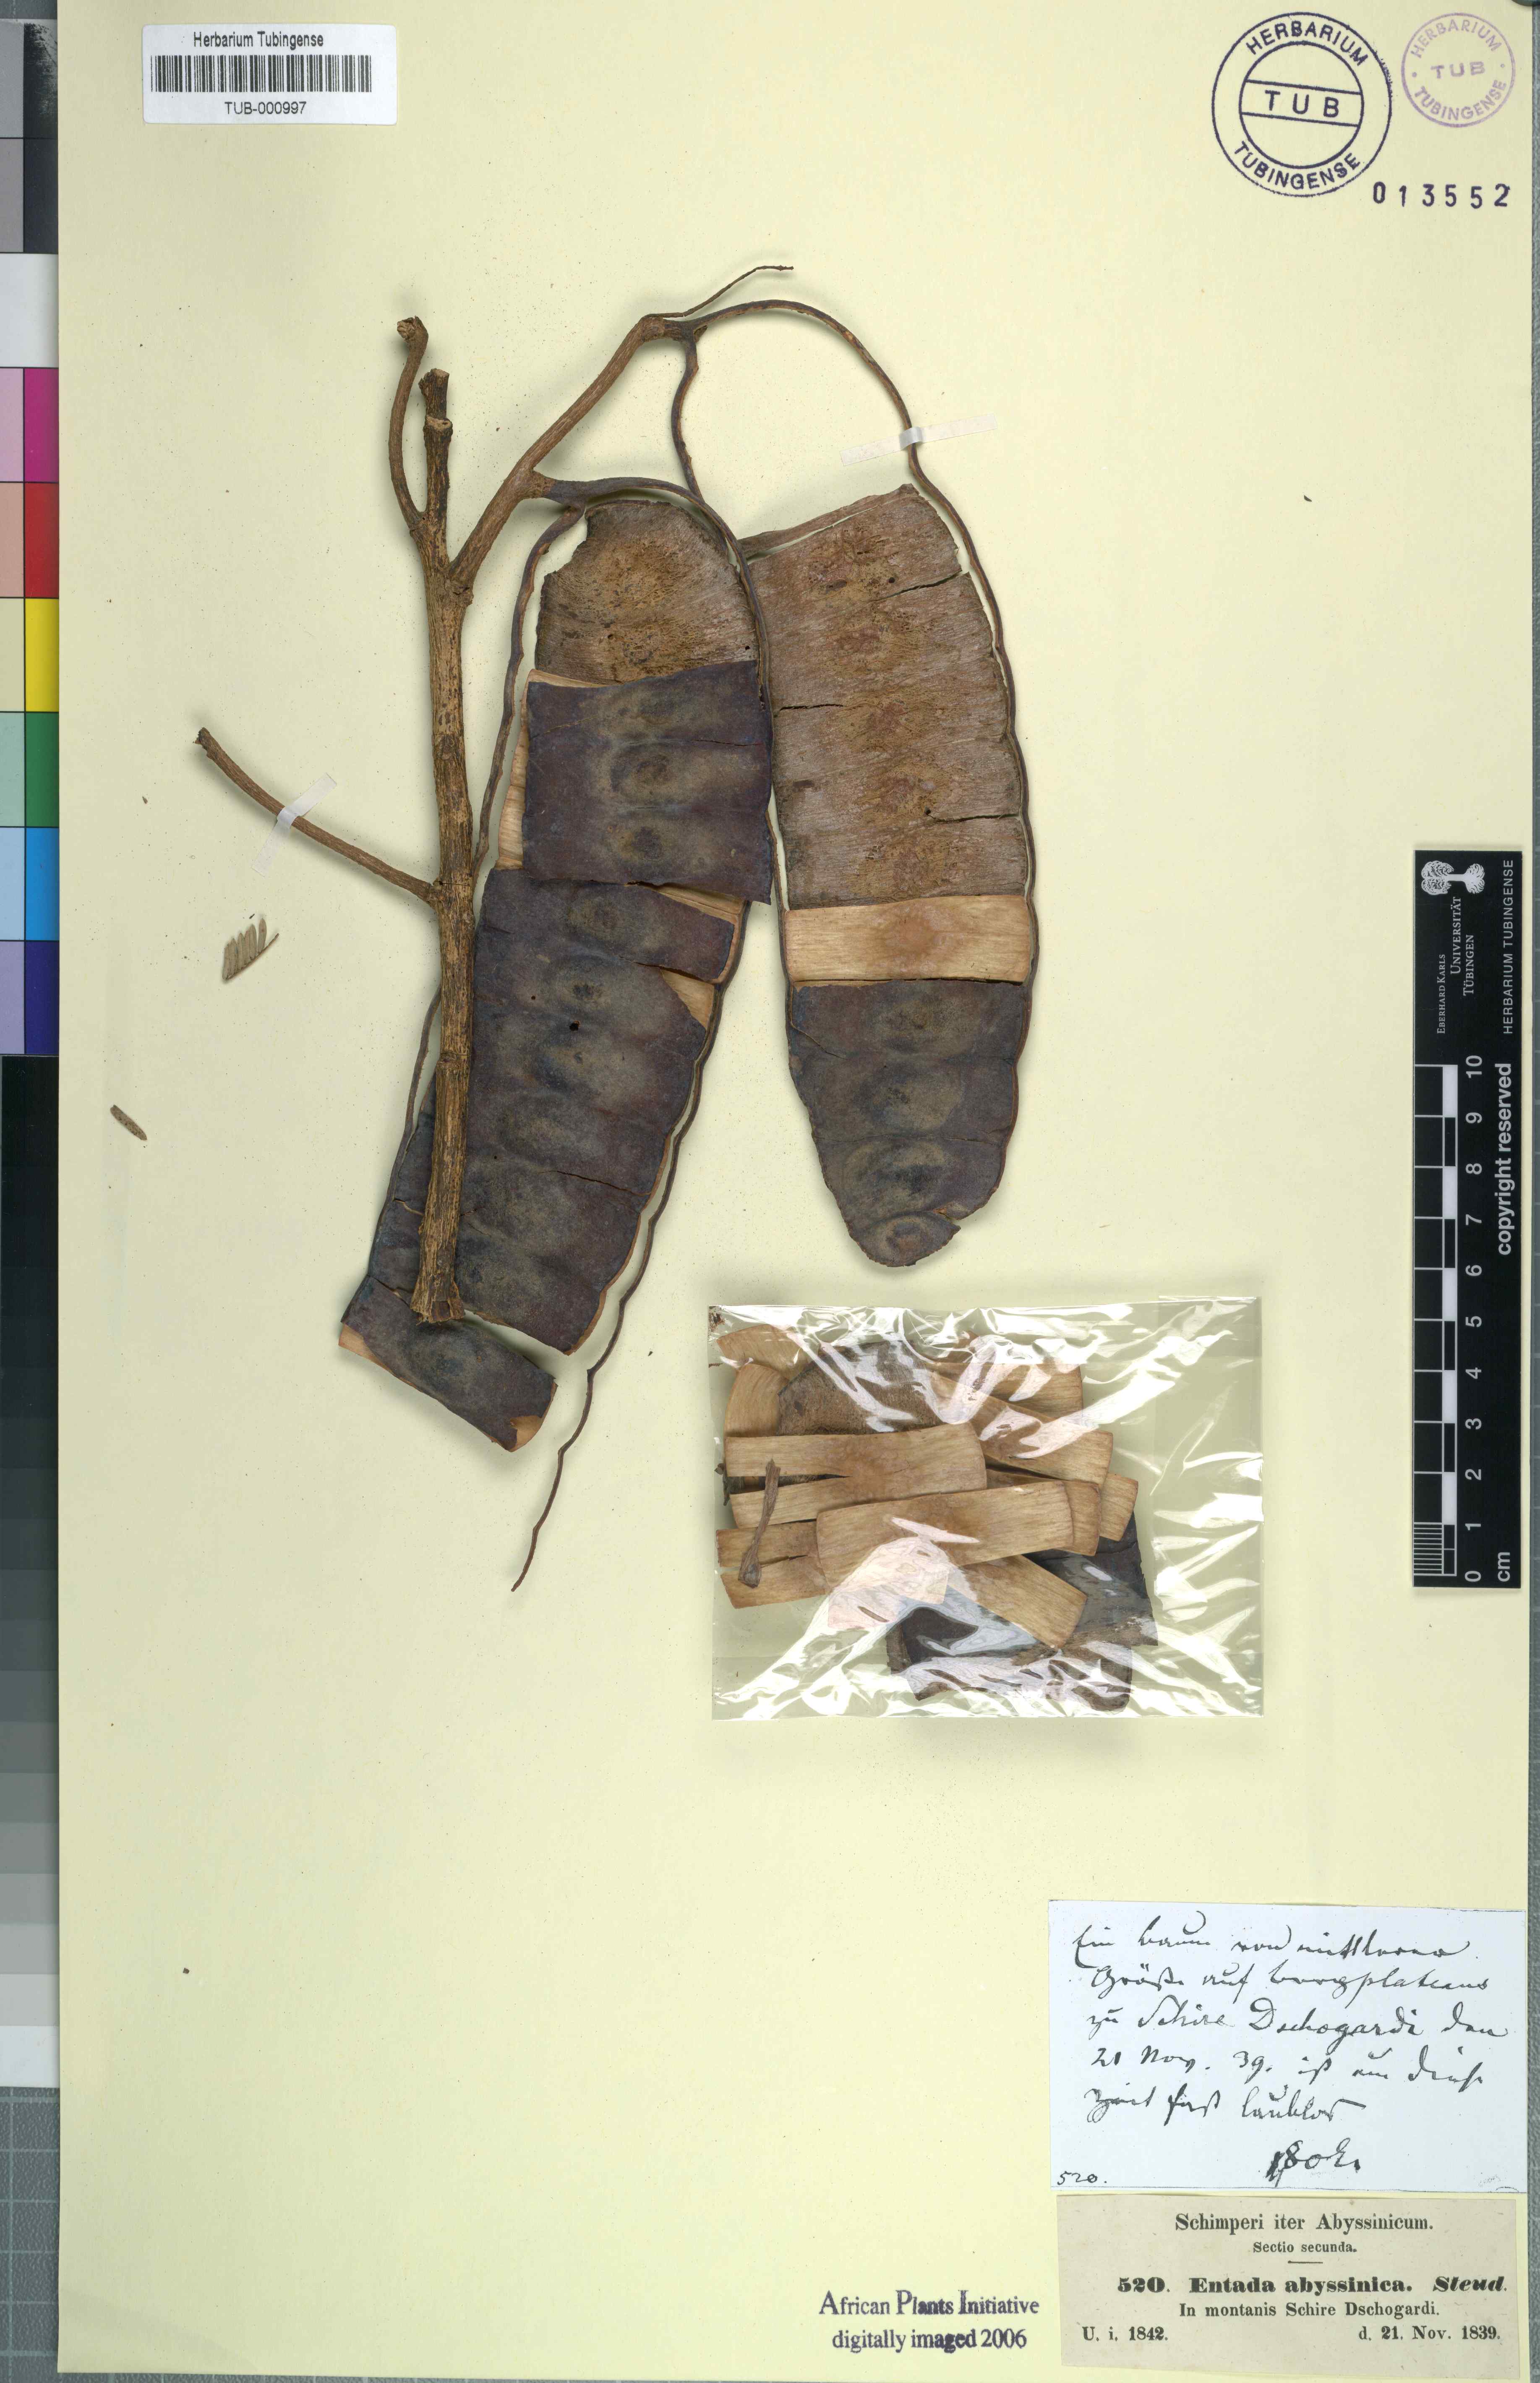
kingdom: Plantae
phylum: Tracheophyta
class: Magnoliopsida
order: Fabales
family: Fabaceae
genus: Entada
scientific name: Entada abyssinica
